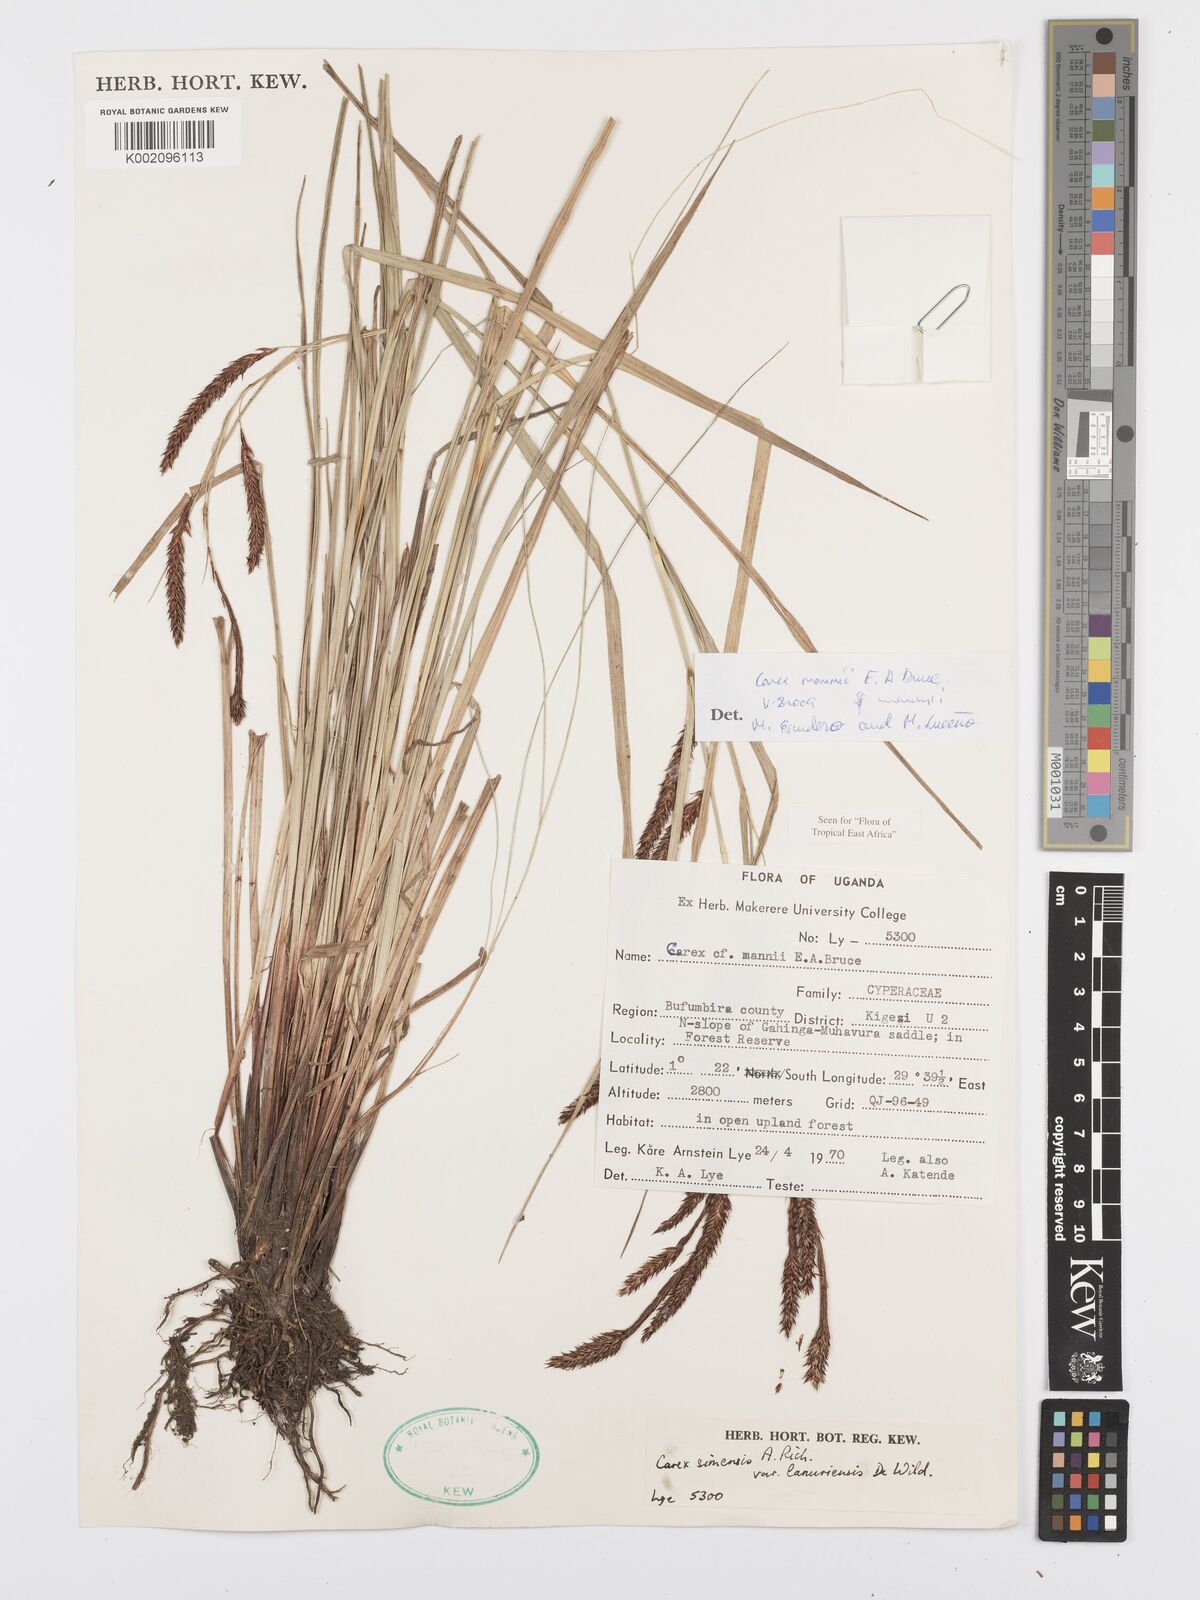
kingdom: Plantae
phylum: Tracheophyta
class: Liliopsida
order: Poales
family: Cyperaceae
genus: Carex
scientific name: Carex mannii
